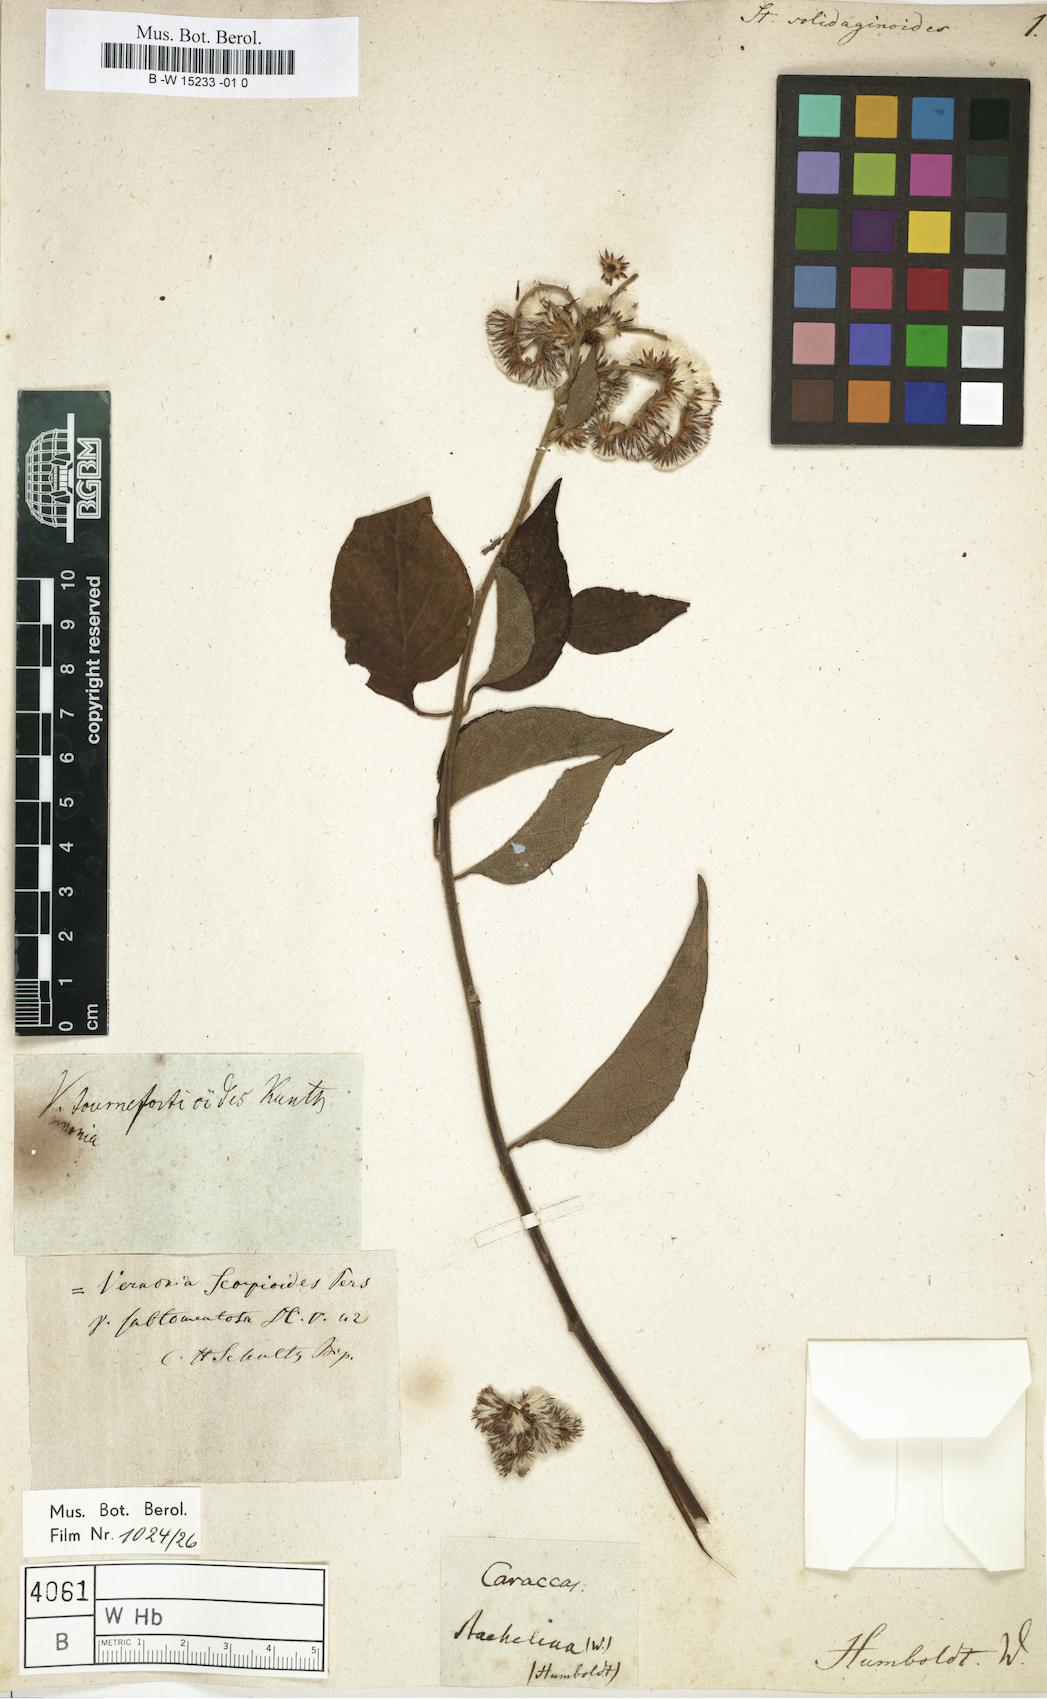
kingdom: Plantae
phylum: Tracheophyta
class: Magnoliopsida
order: Asterales
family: Asteraceae
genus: Staehelina
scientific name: Staehelina solidaginoides
